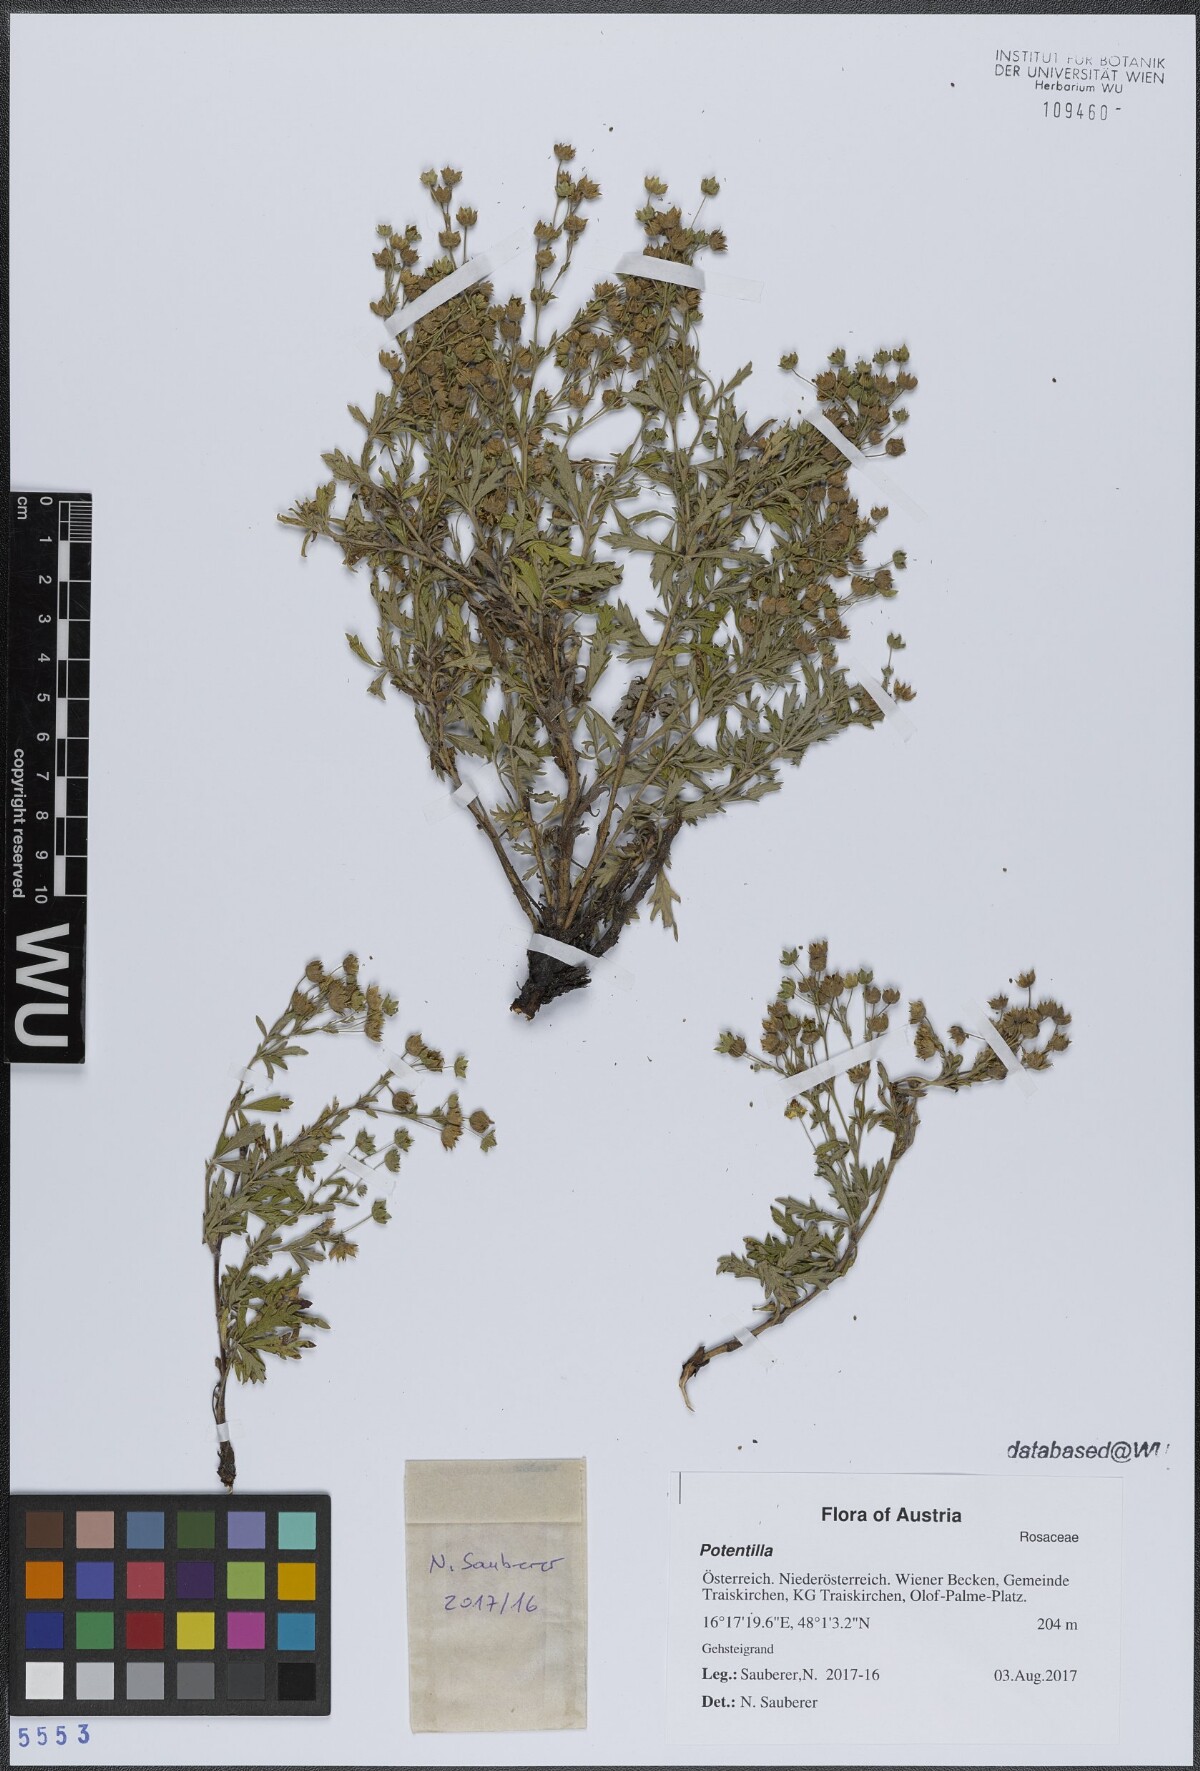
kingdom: Plantae
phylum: Tracheophyta
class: Magnoliopsida
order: Rosales
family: Rosaceae
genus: Potentilla
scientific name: Potentilla
